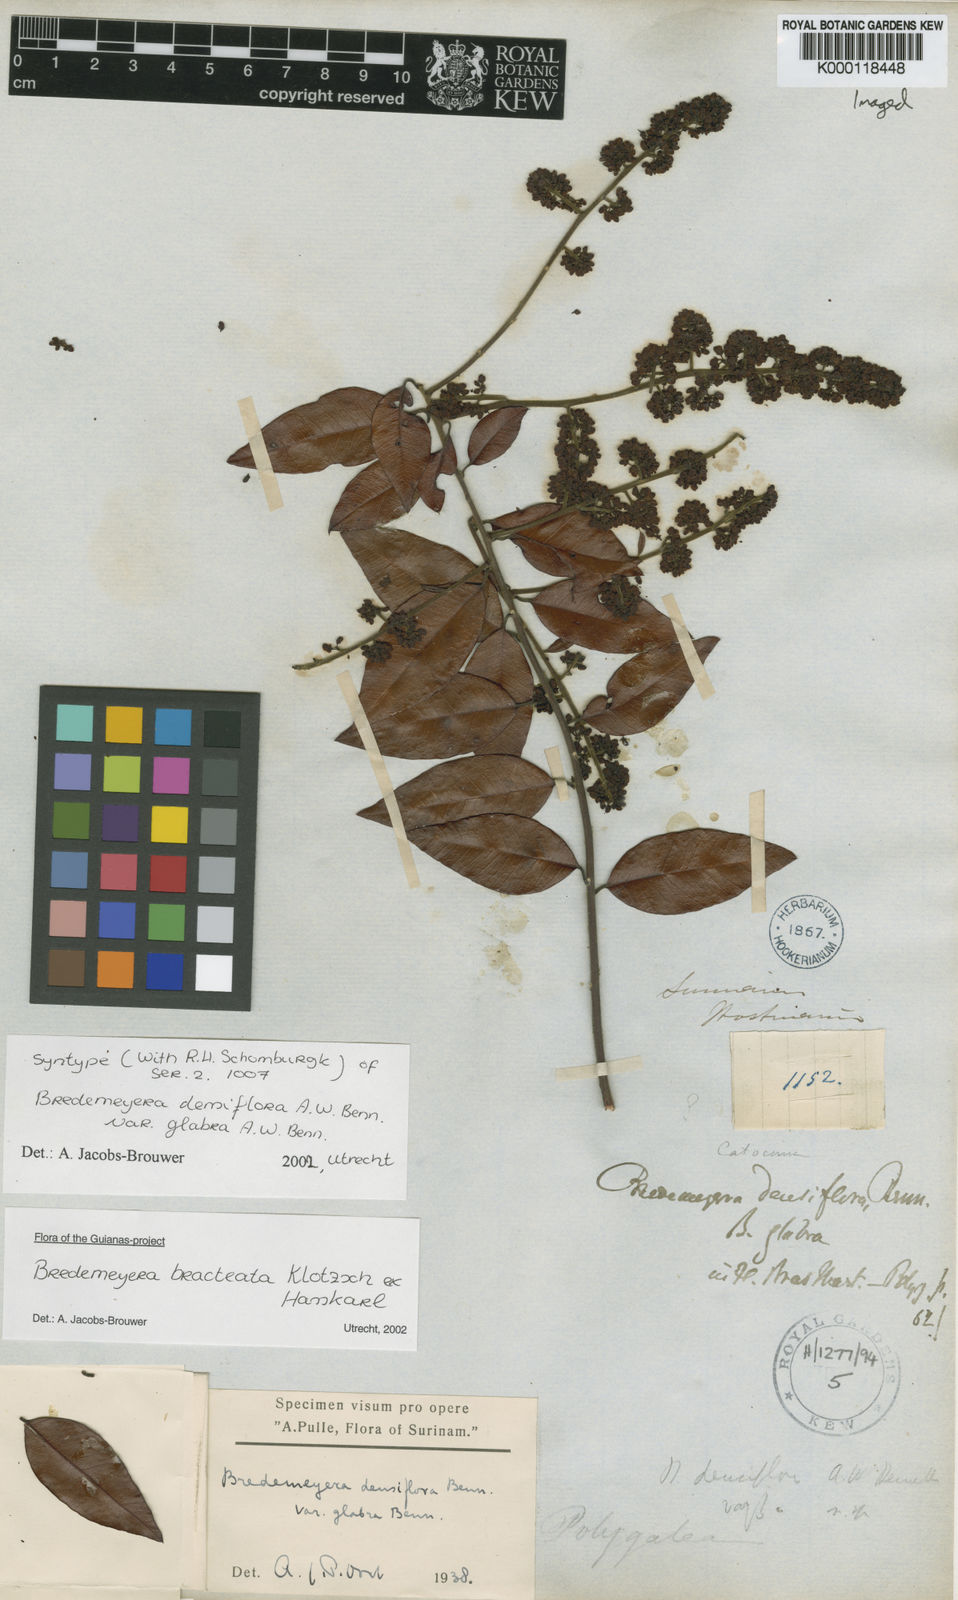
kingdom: Plantae
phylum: Tracheophyta
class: Magnoliopsida
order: Fabales
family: Polygalaceae
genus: Bredemeyera
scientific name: Bredemeyera bracteata
